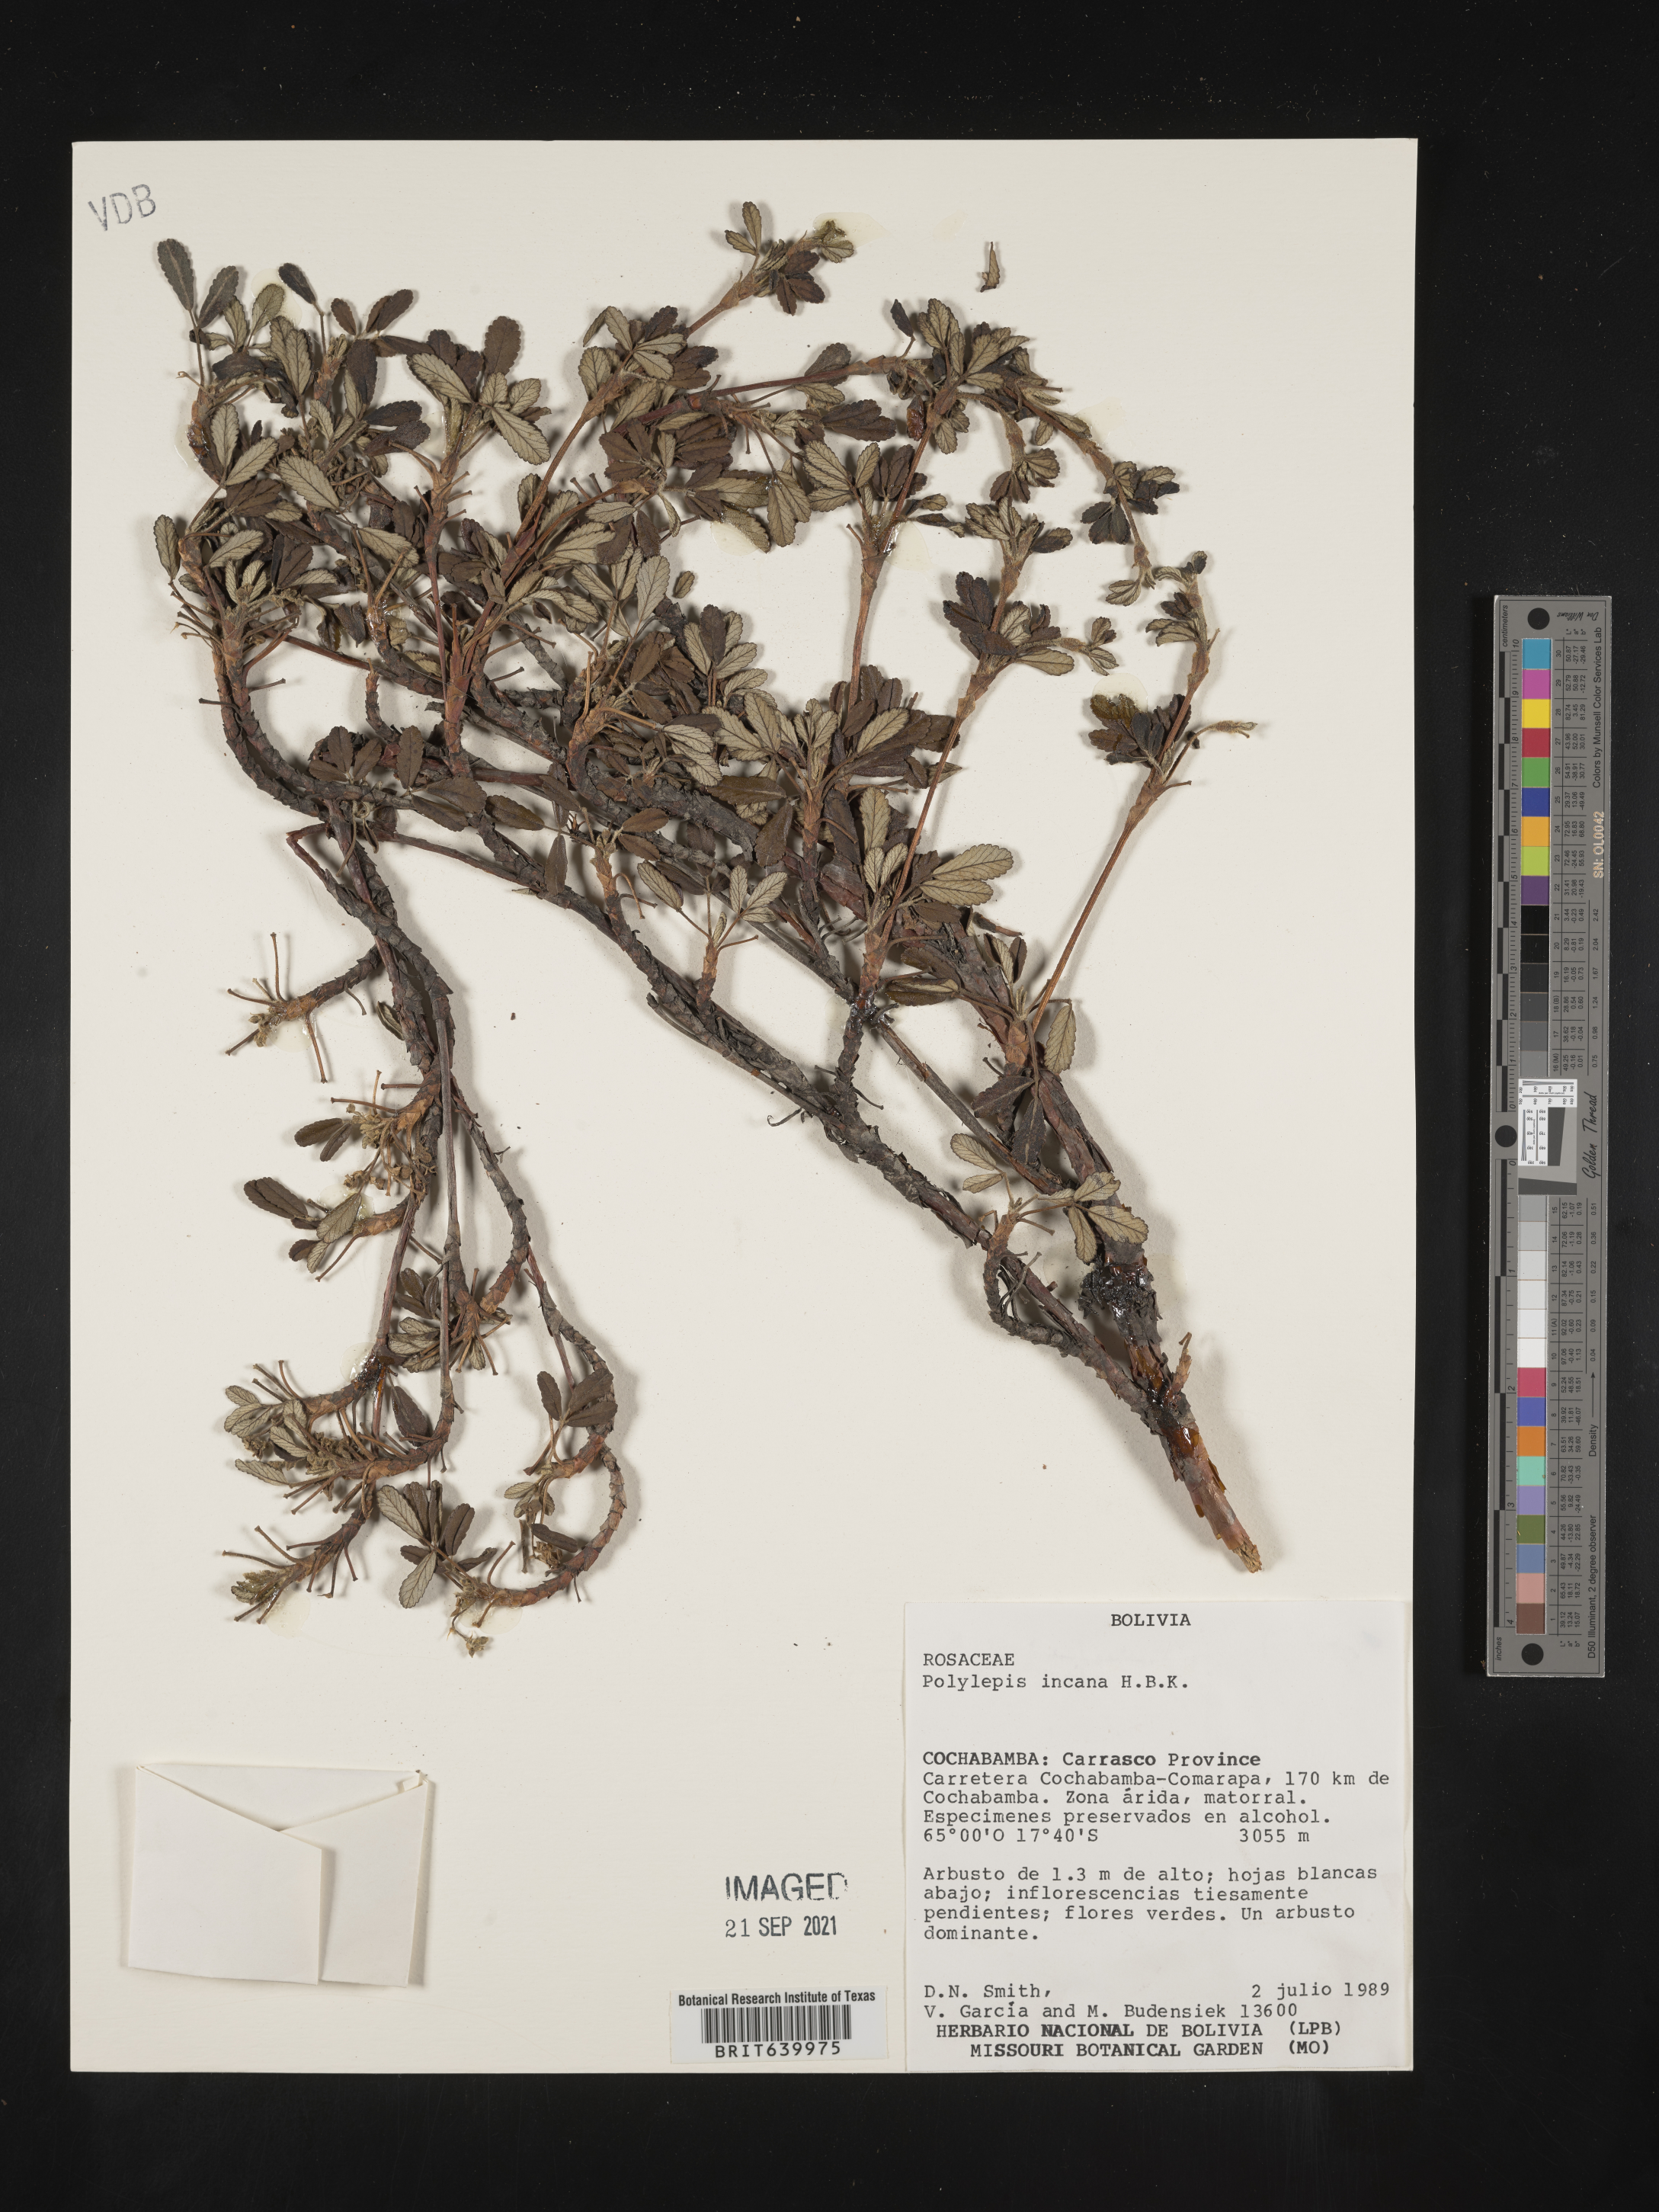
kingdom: Plantae
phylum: Tracheophyta
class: Magnoliopsida
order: Rosales
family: Rosaceae
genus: Polylepis
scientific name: Polylepis
